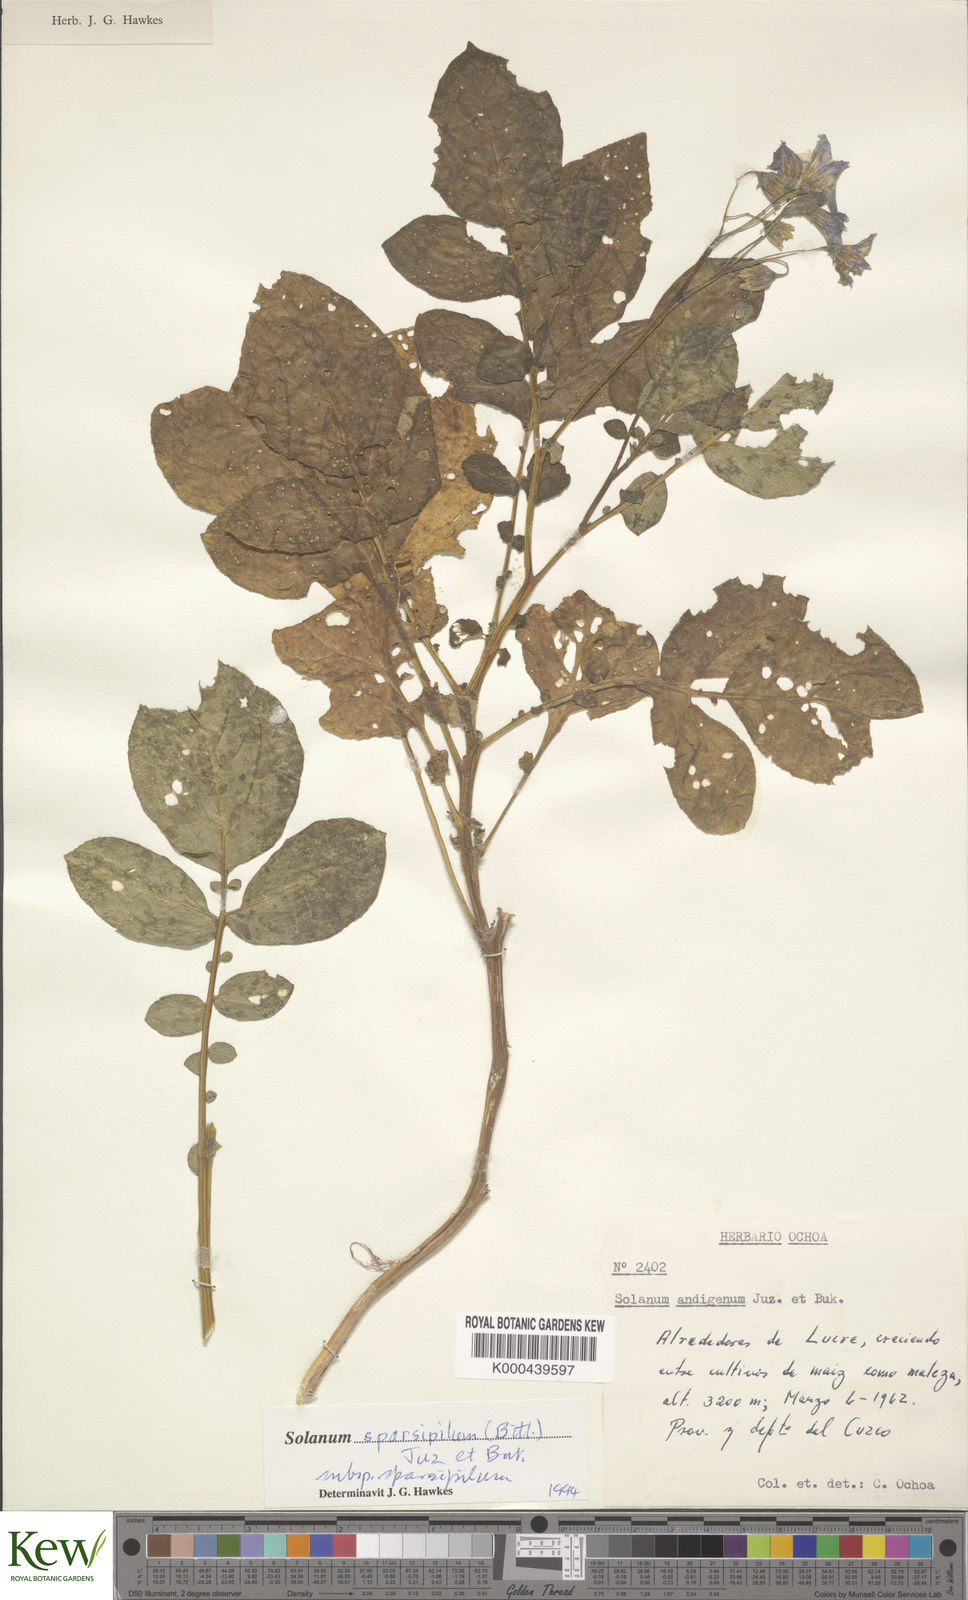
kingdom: Plantae
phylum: Tracheophyta
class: Magnoliopsida
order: Solanales
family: Solanaceae
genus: Solanum
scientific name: Solanum brevicaule
